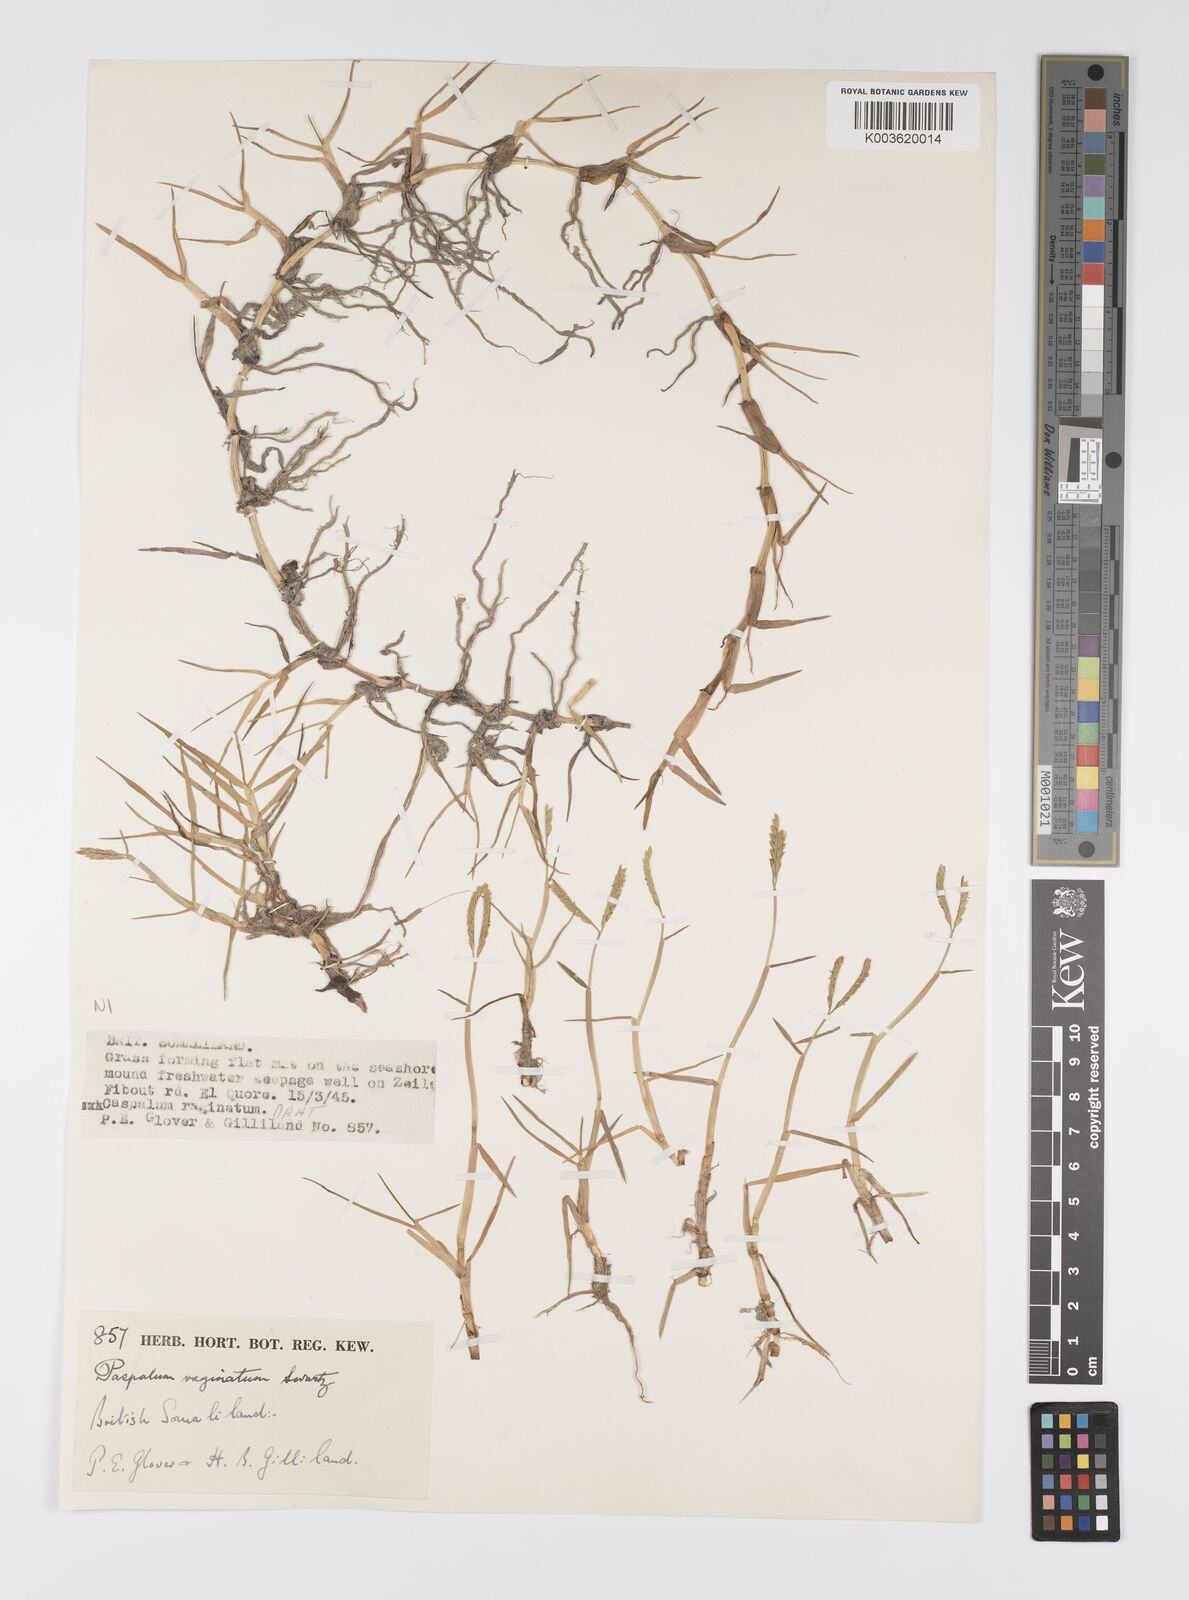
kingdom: Plantae
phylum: Tracheophyta
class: Liliopsida
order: Poales
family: Poaceae
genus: Paspalum
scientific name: Paspalum decumbens
